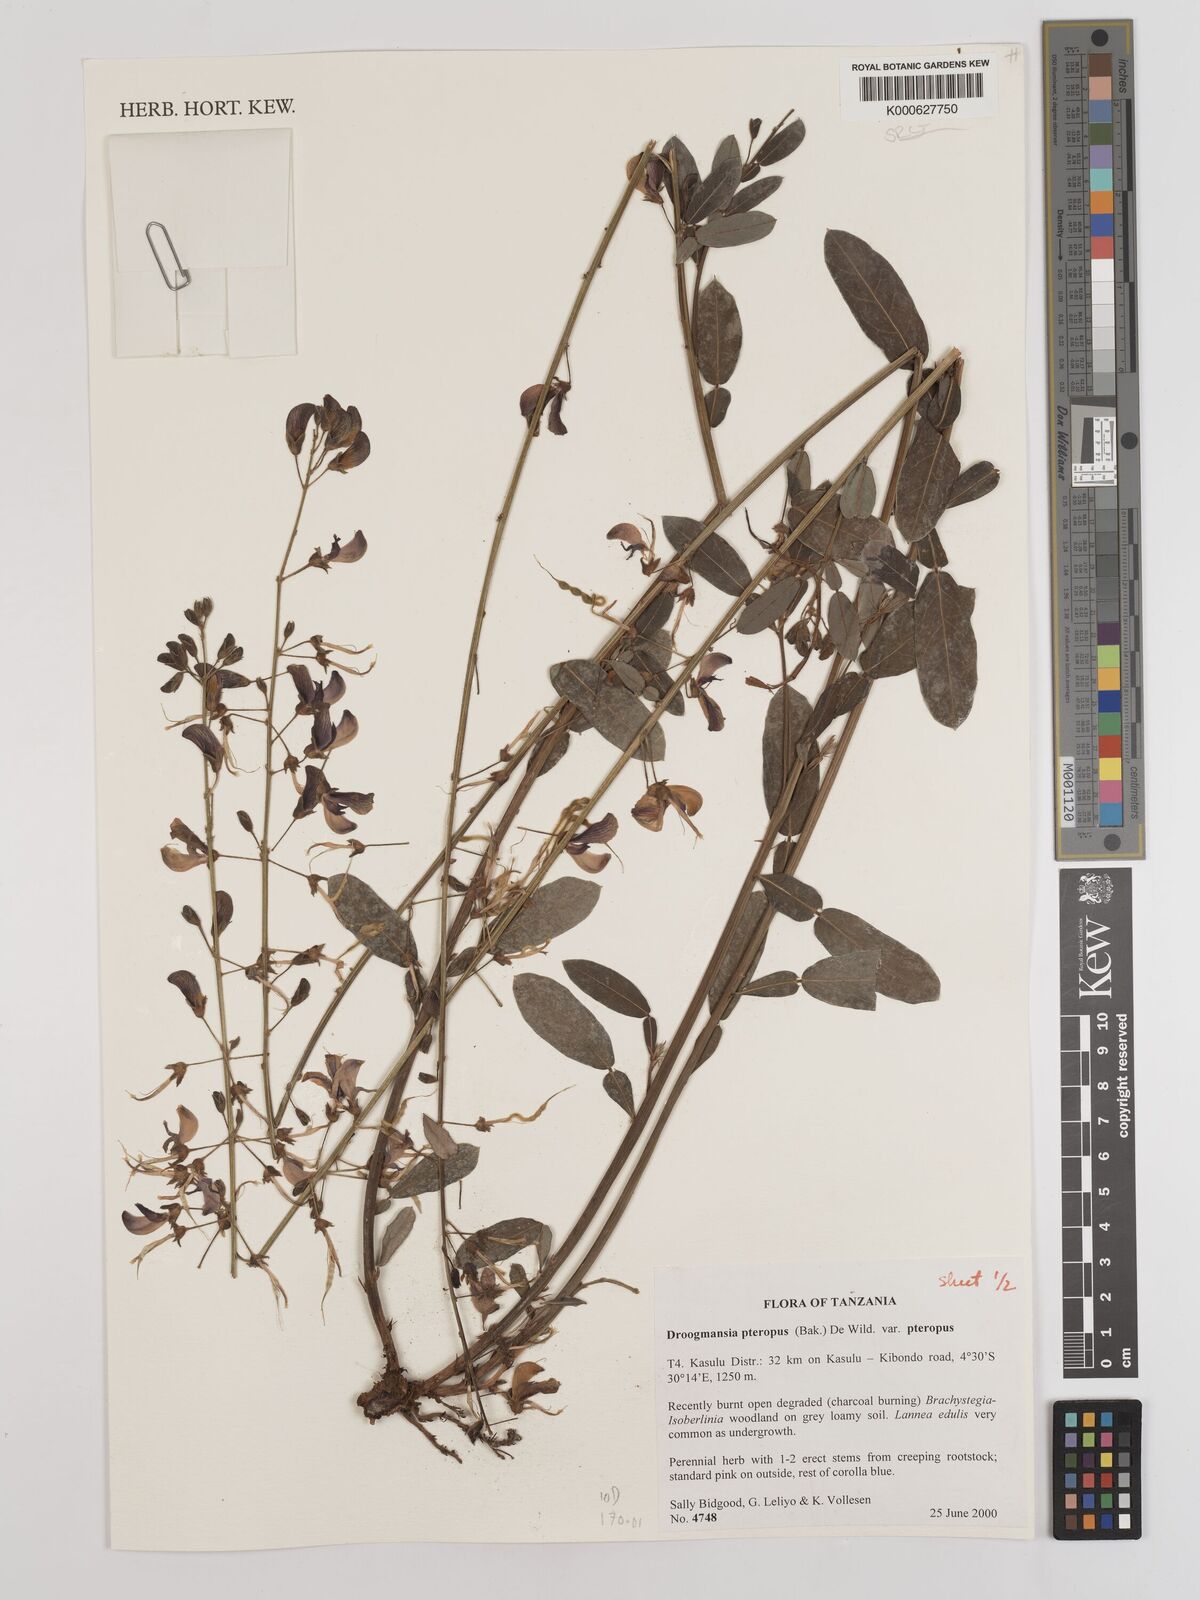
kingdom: Plantae
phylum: Tracheophyta
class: Magnoliopsida
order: Fabales
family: Fabaceae
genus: Droogmansia
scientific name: Droogmansia
